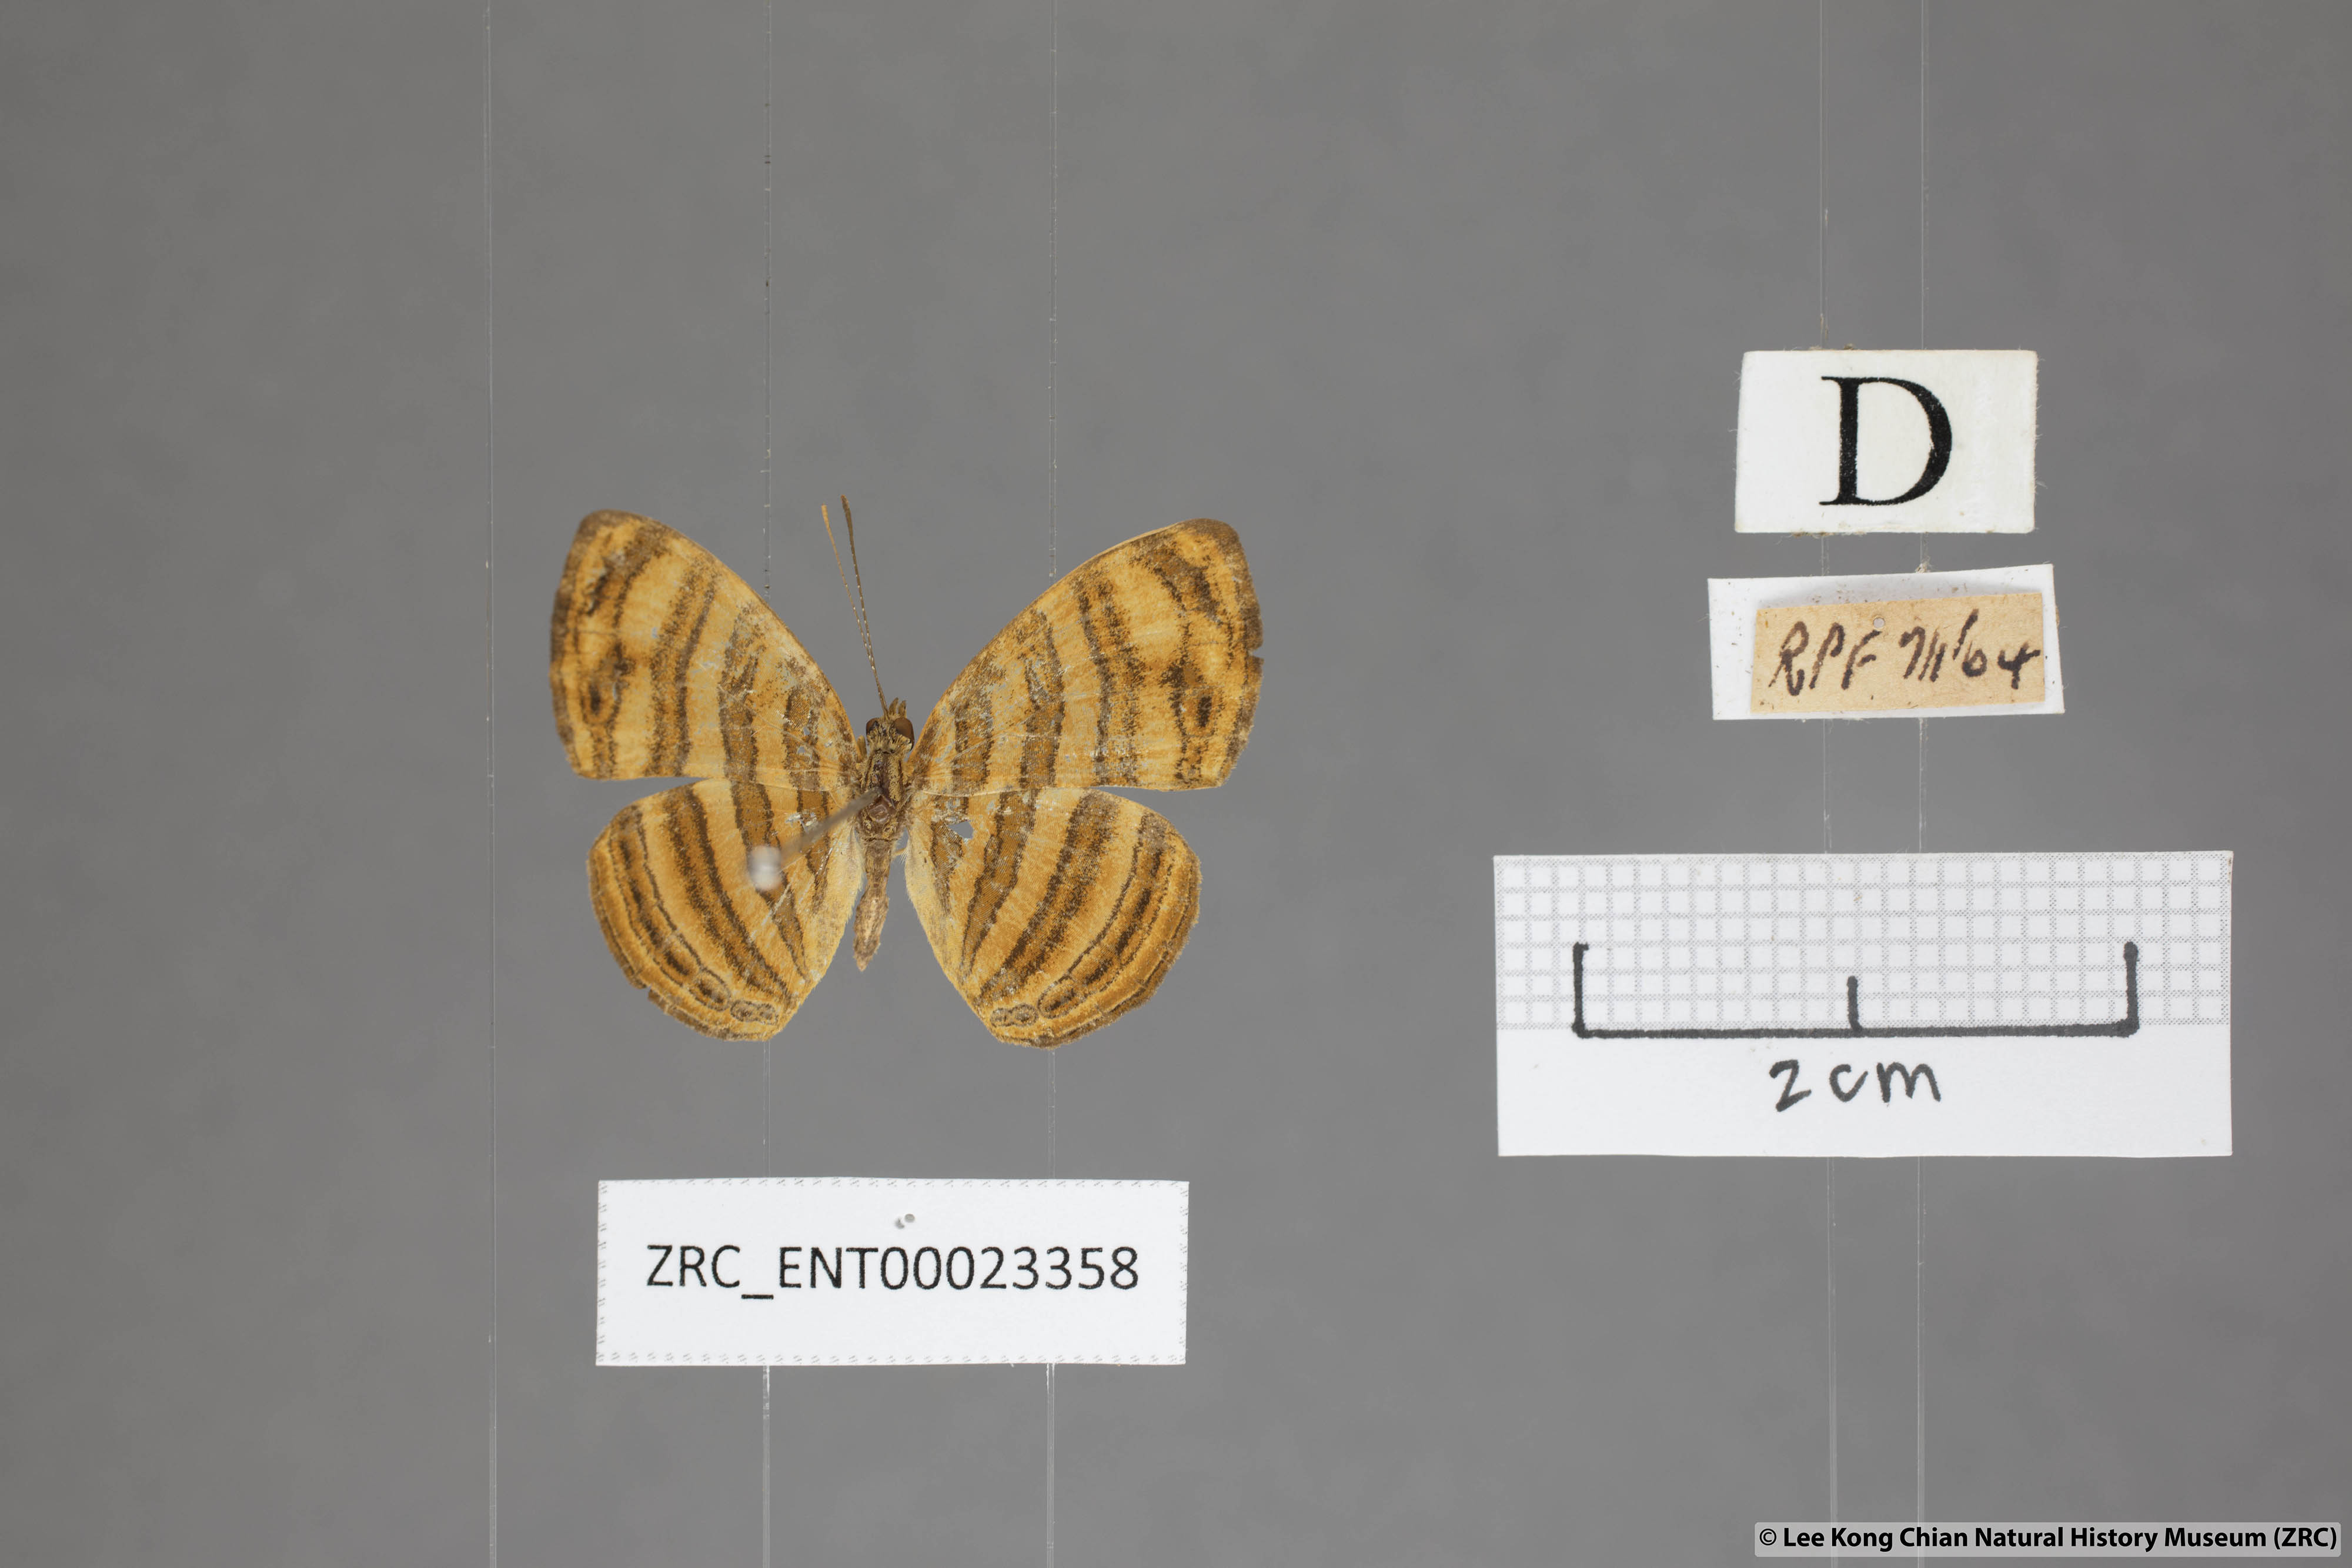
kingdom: Animalia
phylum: Arthropoda
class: Insecta
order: Lepidoptera
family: Nymphalidae
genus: Chersonesia
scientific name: Chersonesia peraka
